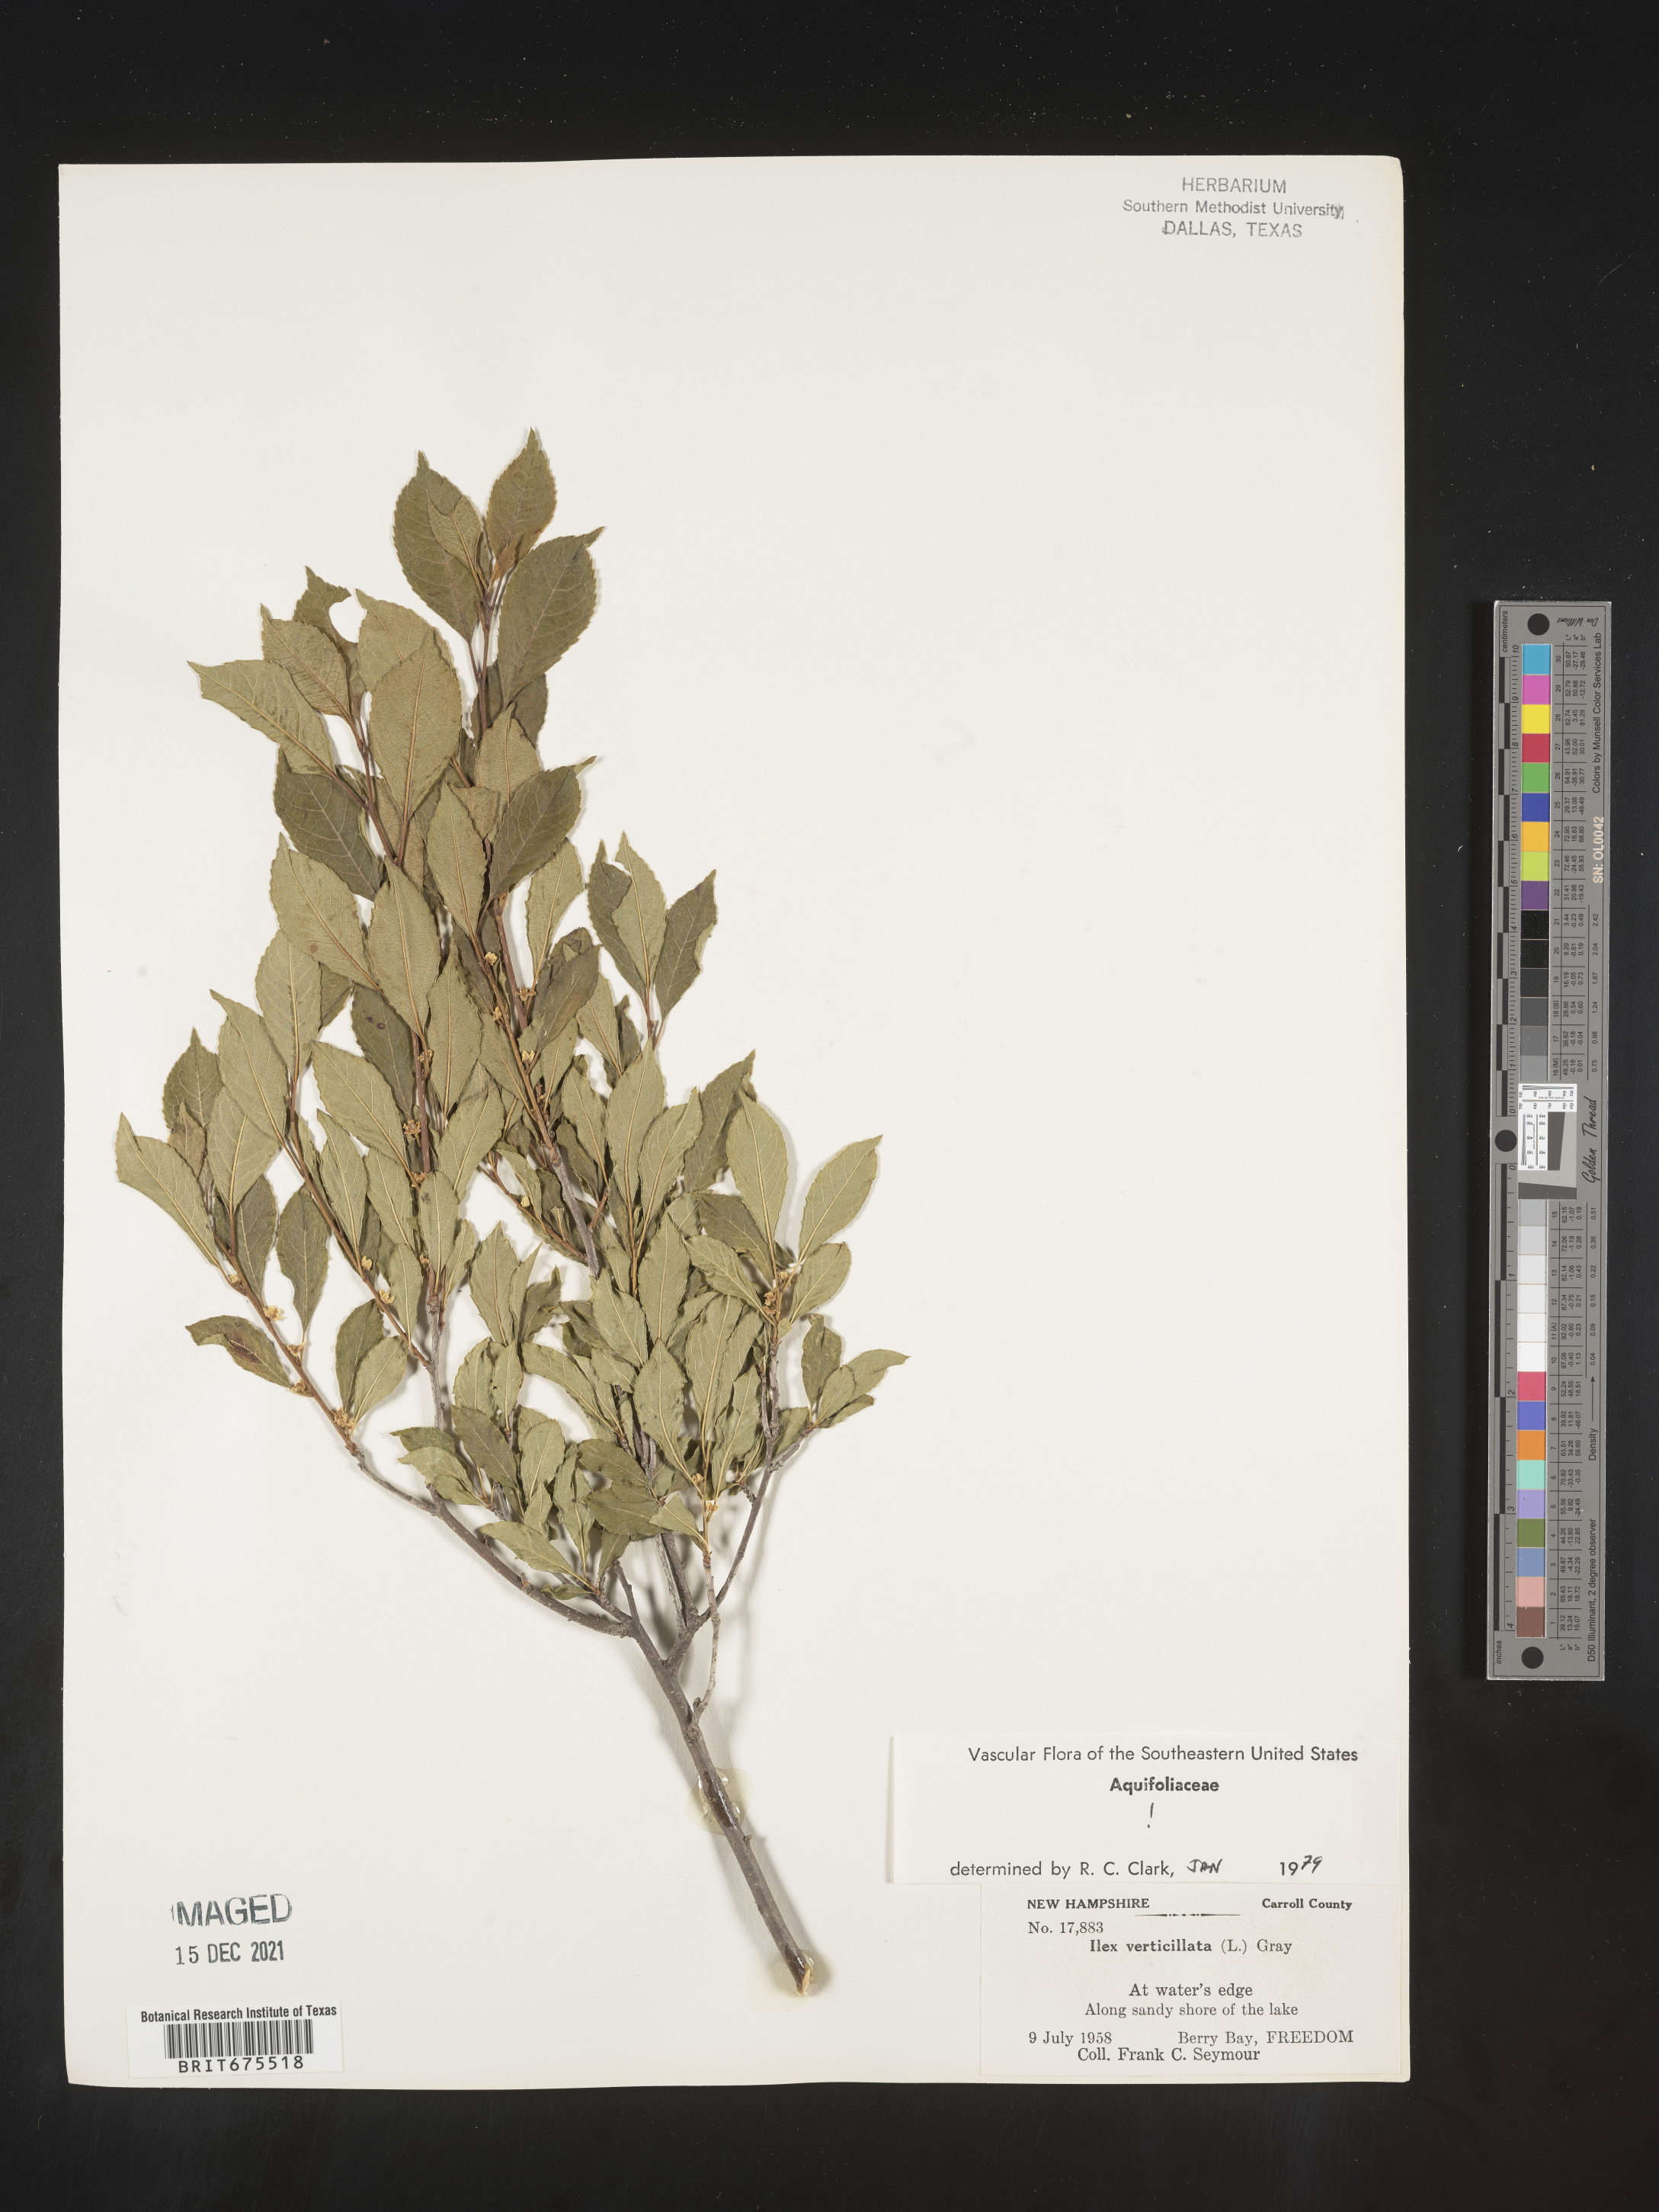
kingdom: Plantae
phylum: Tracheophyta
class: Magnoliopsida
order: Aquifoliales
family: Aquifoliaceae
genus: Ilex
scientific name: Ilex verticillata
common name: Virginia winterberry
